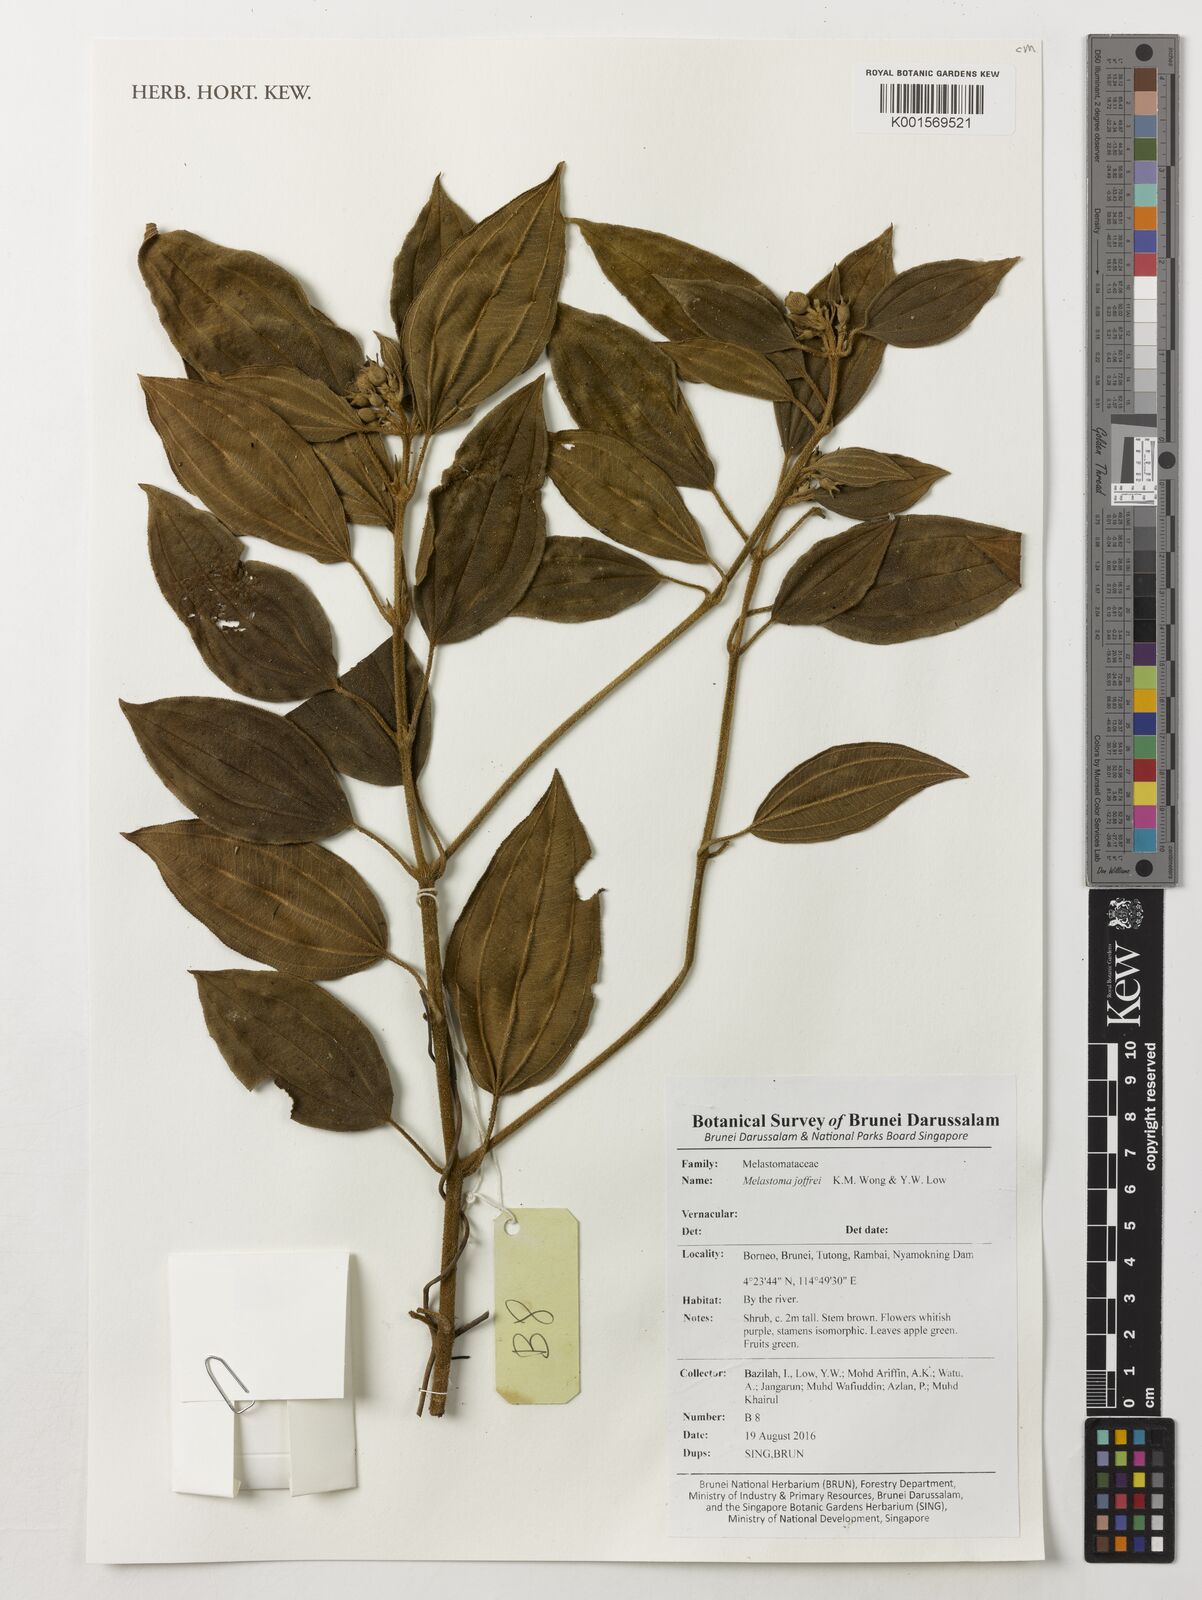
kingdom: Plantae
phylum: Tracheophyta
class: Magnoliopsida
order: Myrtales
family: Melastomataceae
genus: Melastoma
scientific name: Melastoma joffrei
